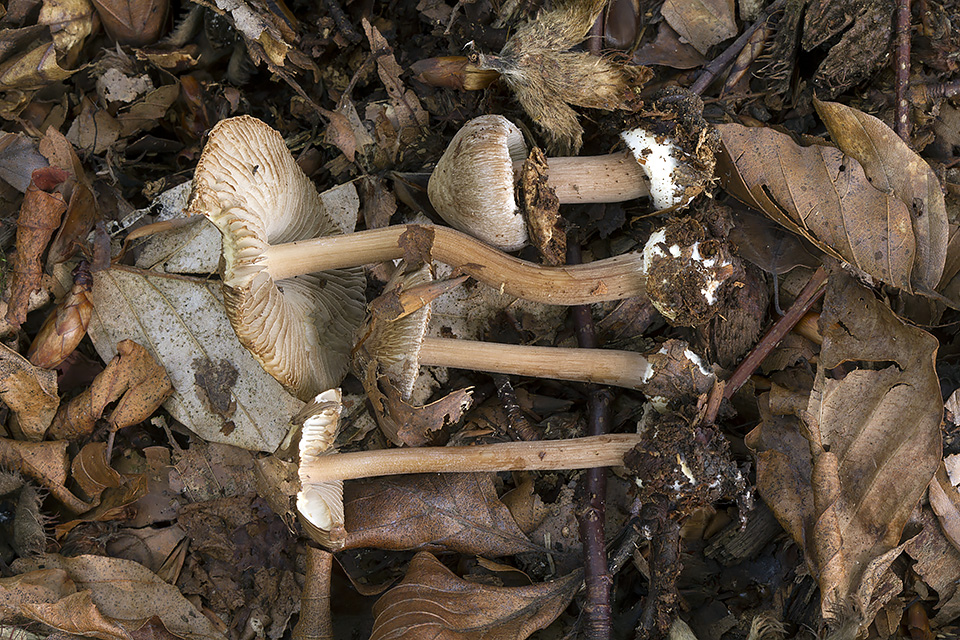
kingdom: Fungi
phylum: Basidiomycota
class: Agaricomycetes
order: Agaricales
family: Inocybaceae
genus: Inocybe
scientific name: Inocybe asterospora
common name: stjernesporet trævlhat
